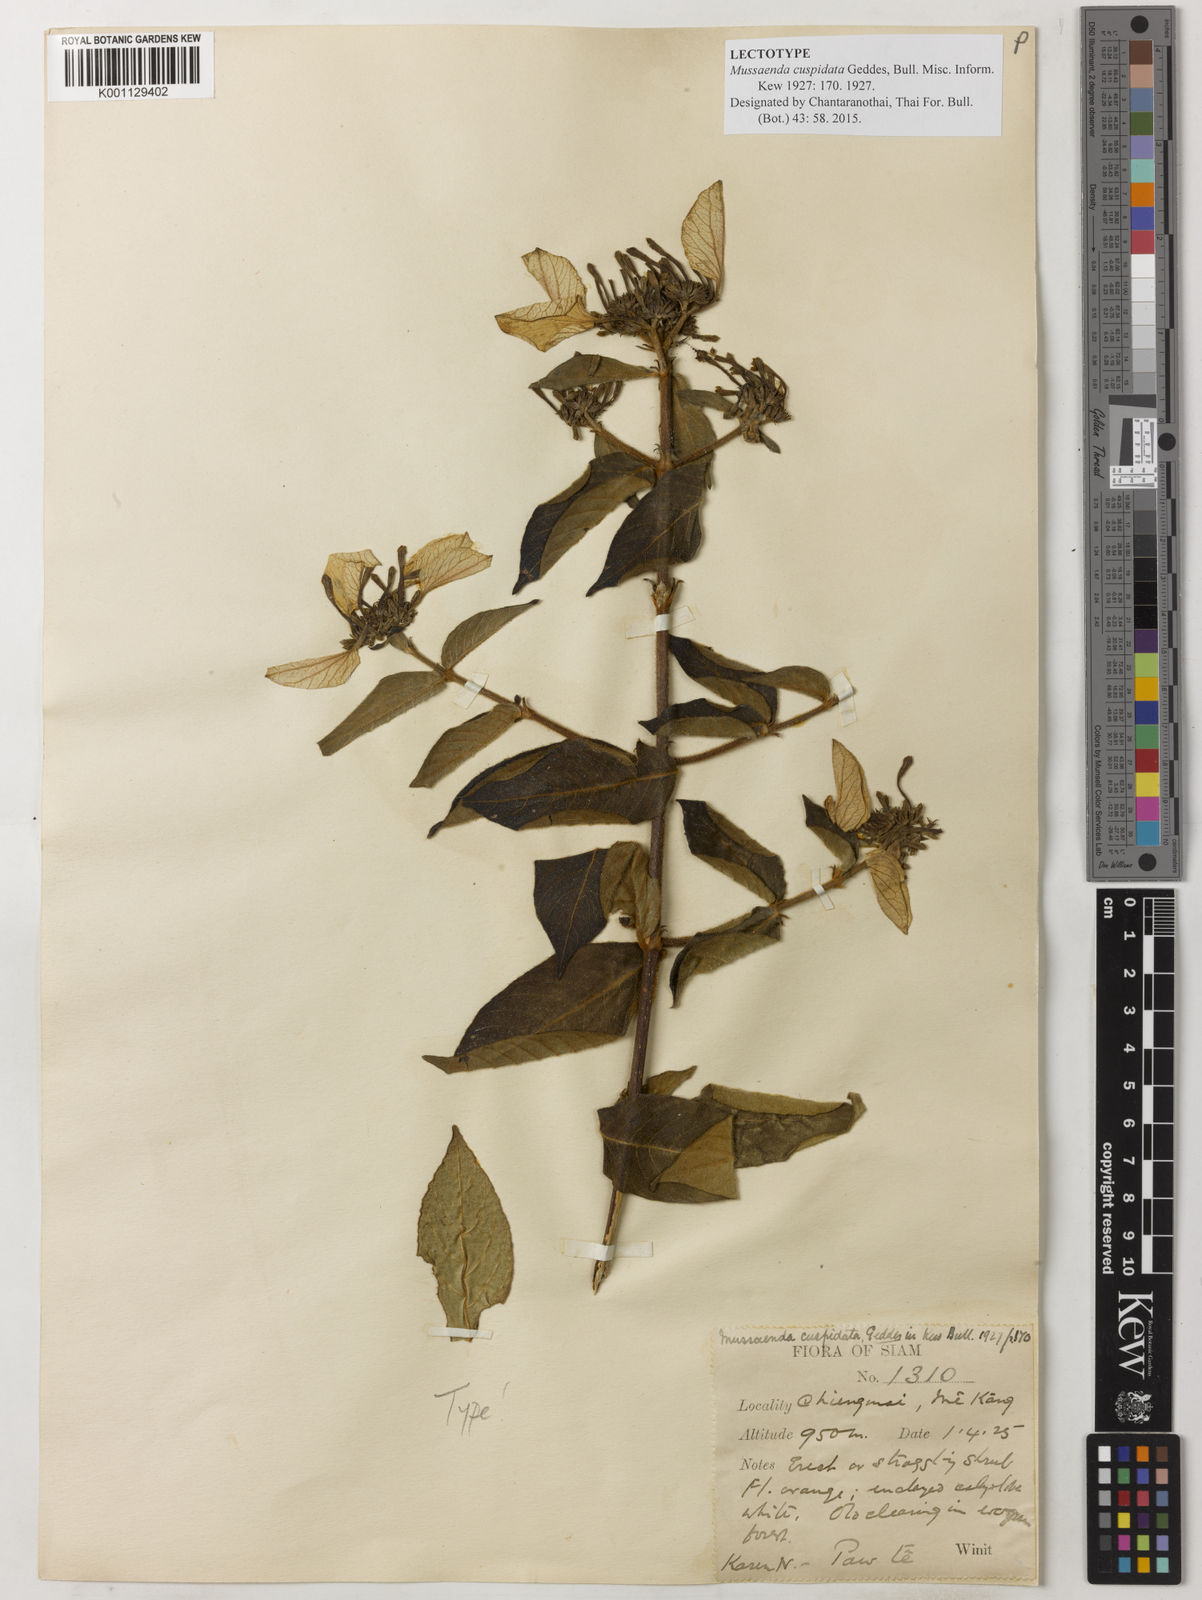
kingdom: Plantae
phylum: Tracheophyta
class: Magnoliopsida
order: Gentianales
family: Rubiaceae
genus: Mussaenda
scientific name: Mussaenda sanderiana
